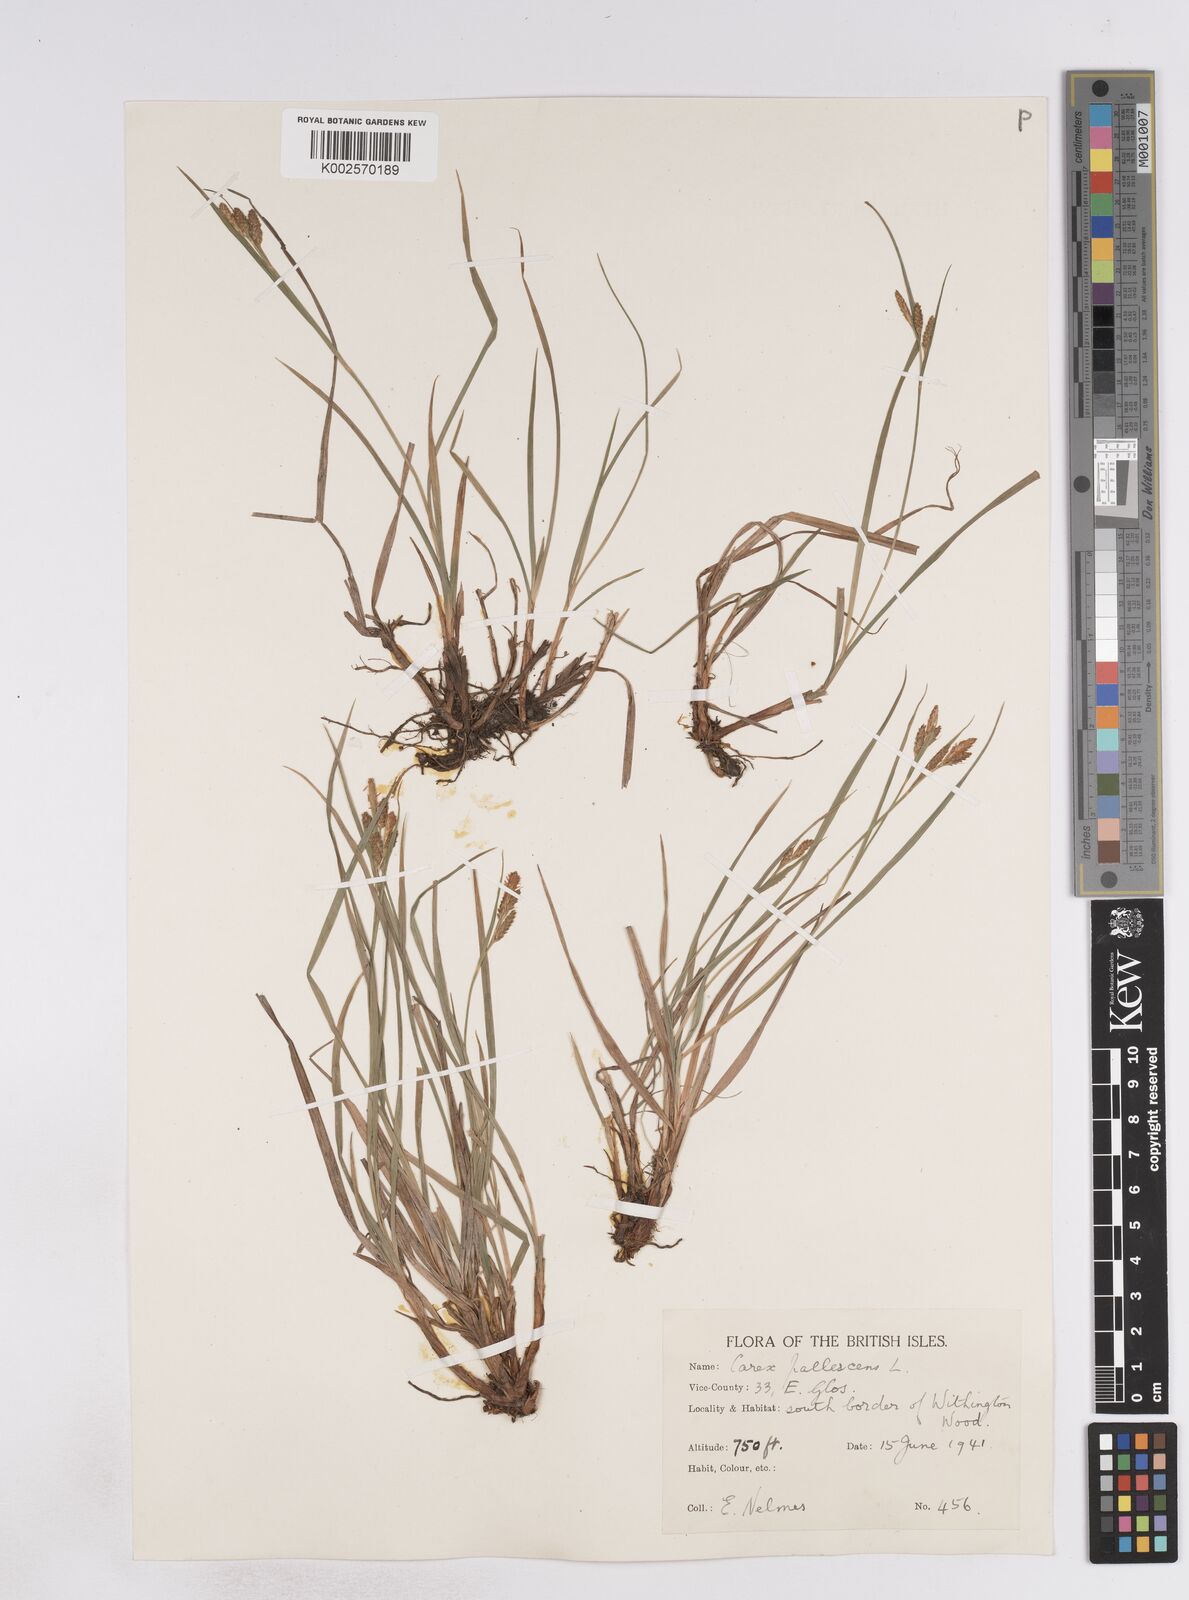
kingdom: Plantae
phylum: Tracheophyta
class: Liliopsida
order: Poales
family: Cyperaceae
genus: Carex
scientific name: Carex pallescens
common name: Pale sedge
